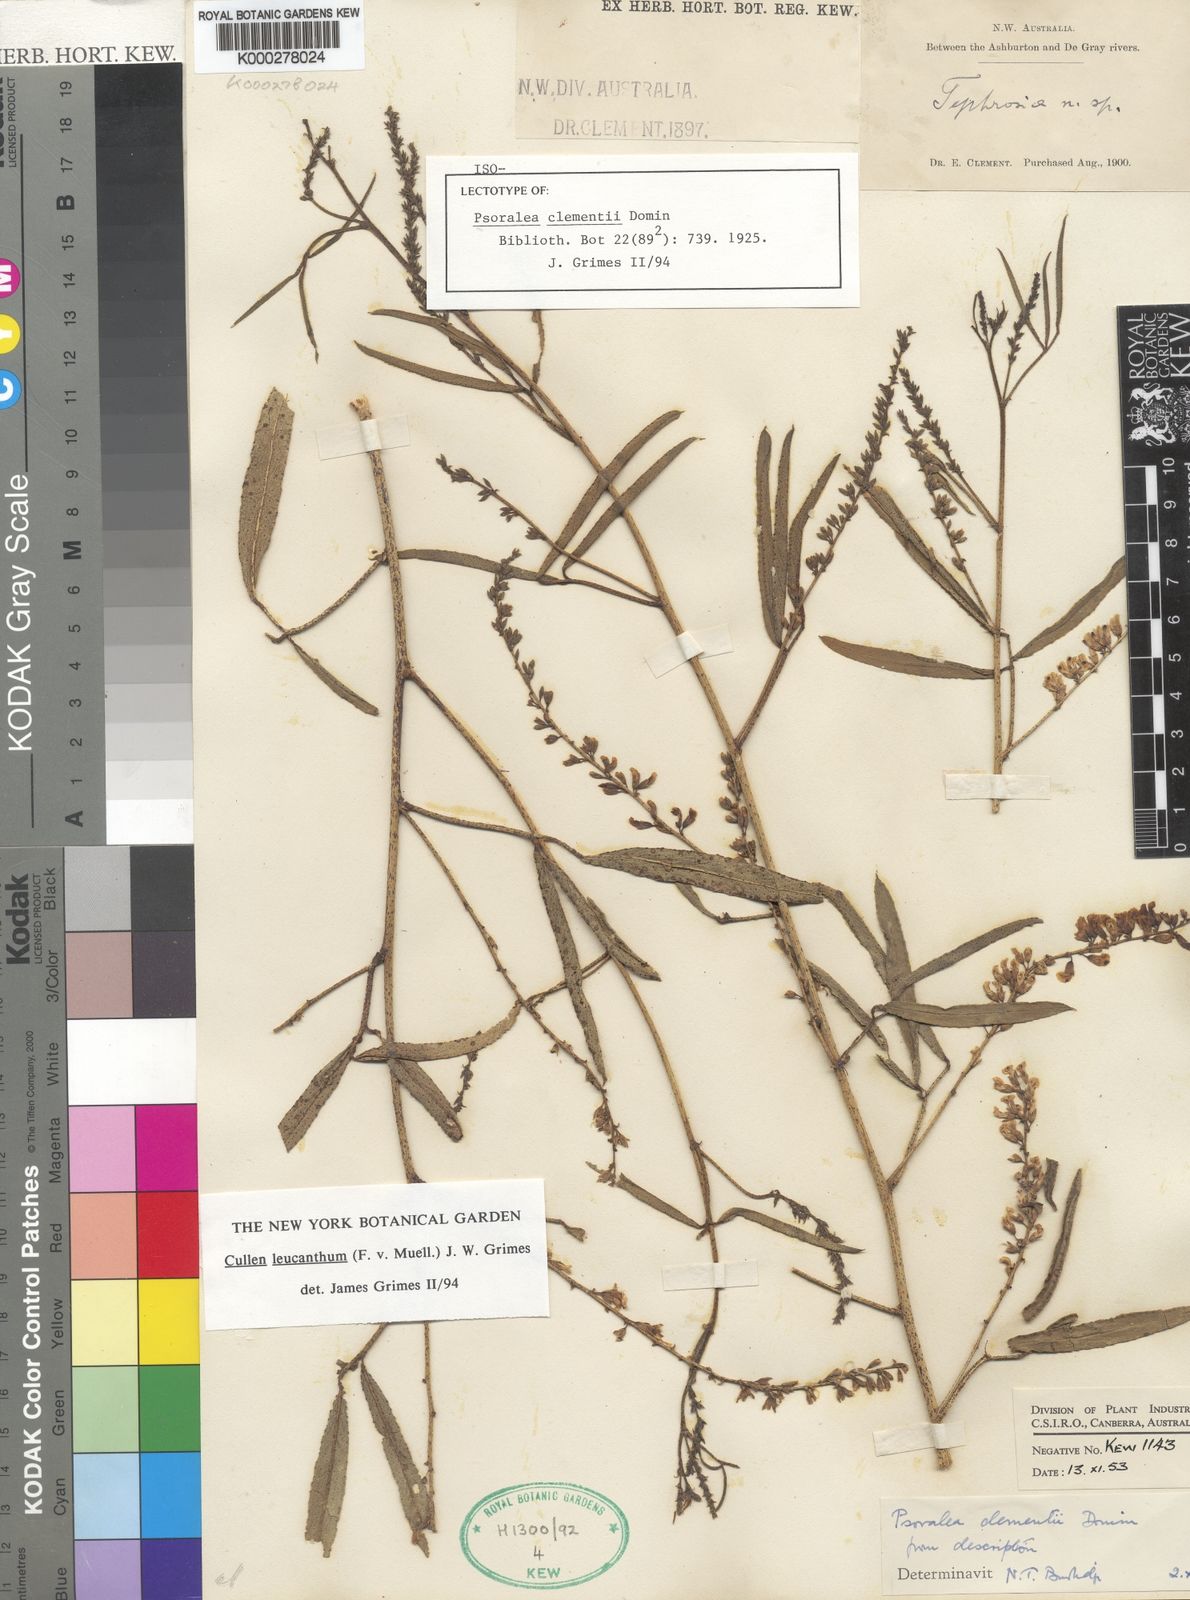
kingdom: Plantae
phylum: Tracheophyta
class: Magnoliopsida
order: Fabales
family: Fabaceae
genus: Cullen
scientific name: Cullen leucanthum
